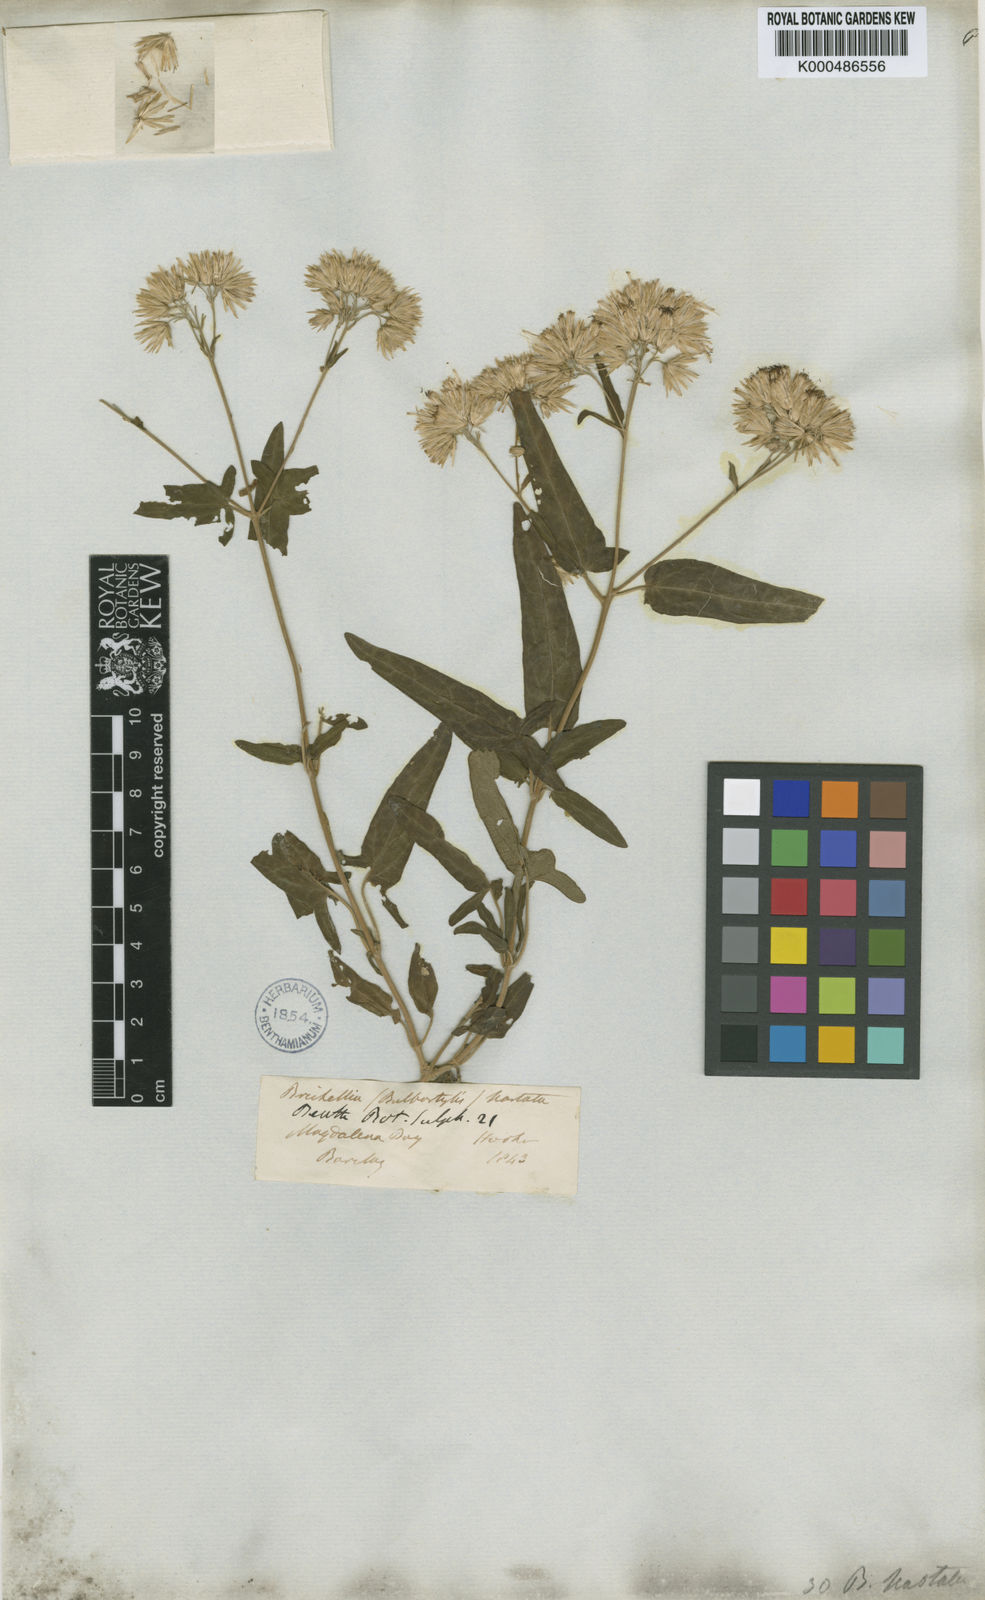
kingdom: Plantae
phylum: Tracheophyta
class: Magnoliopsida
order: Asterales
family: Asteraceae
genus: Brickellia
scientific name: Brickellia hastata
